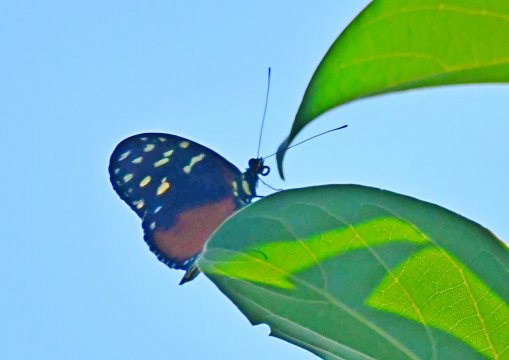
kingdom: Animalia
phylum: Arthropoda
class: Insecta
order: Lepidoptera
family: Nymphalidae
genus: Heliconius
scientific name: Heliconius hecale
